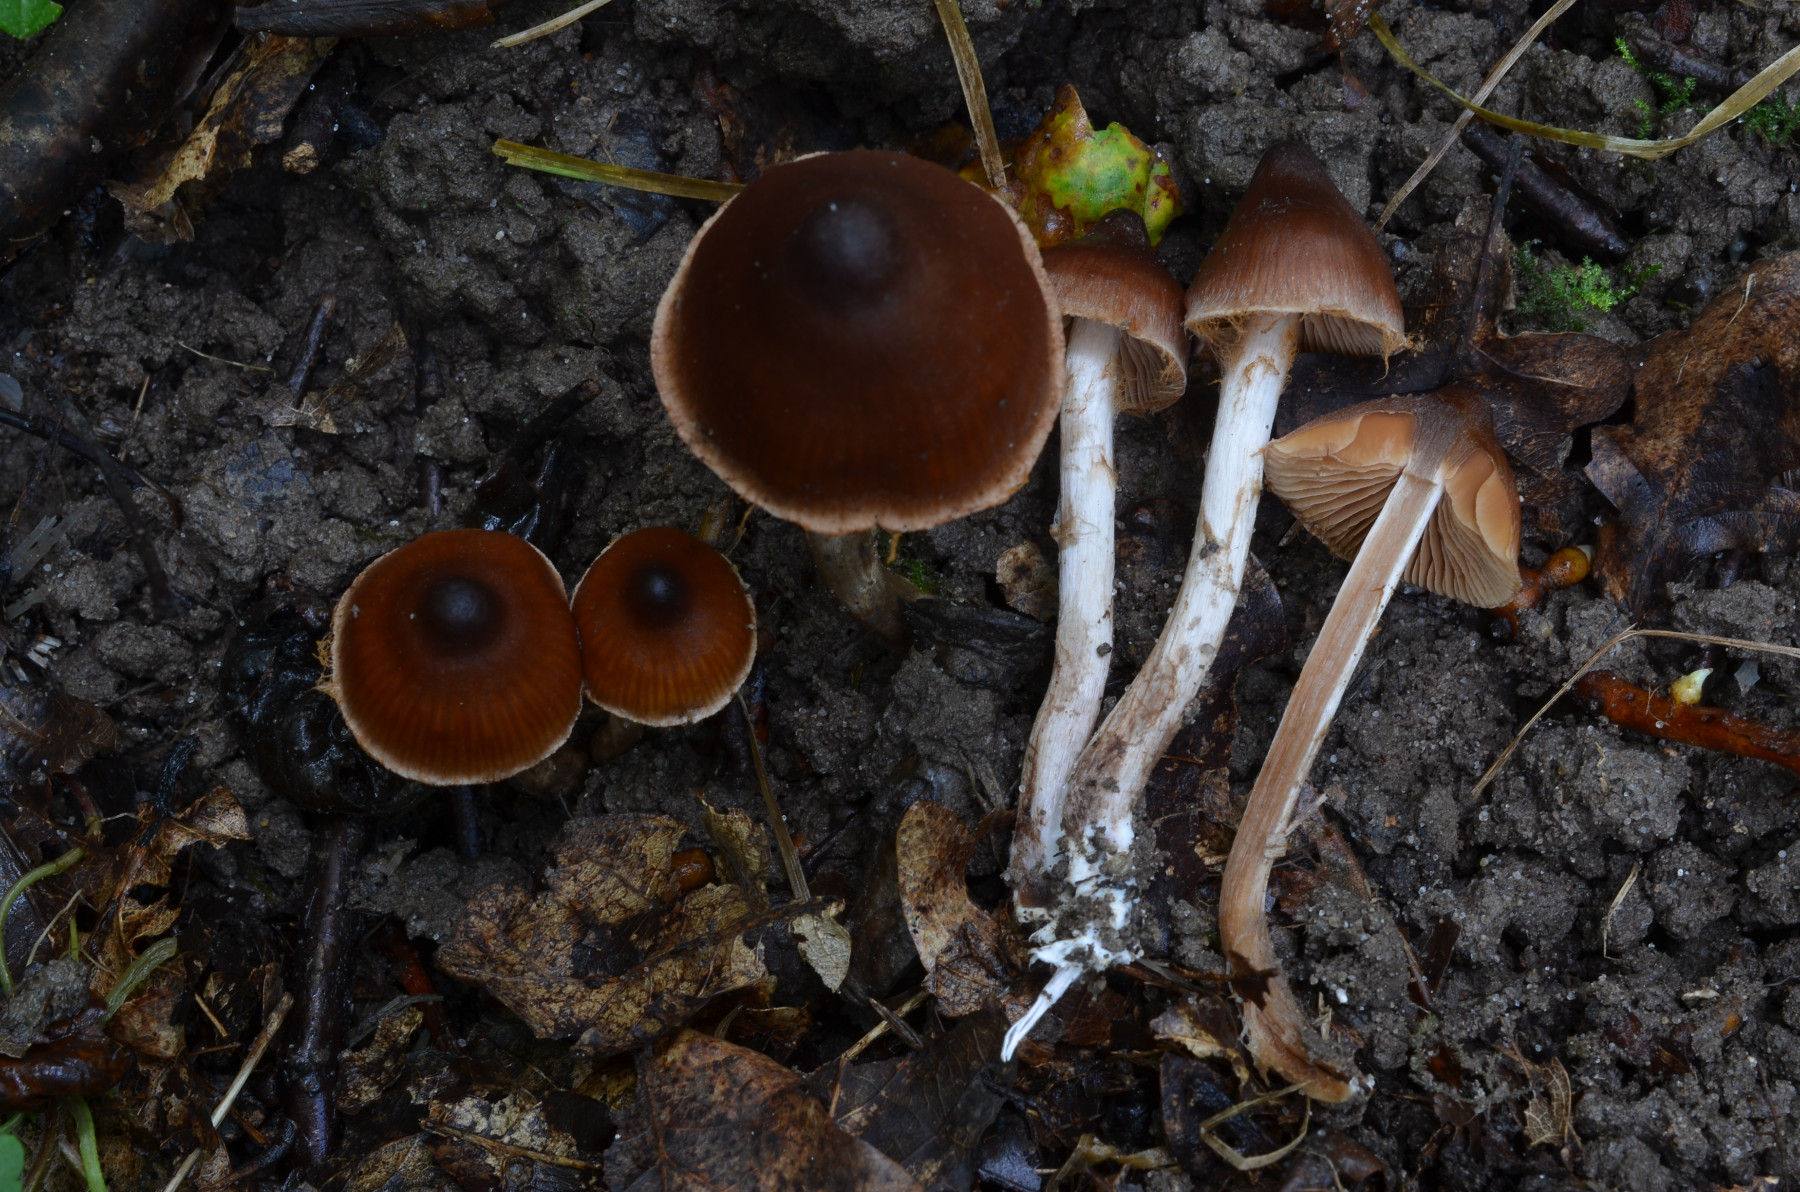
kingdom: Fungi
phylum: Basidiomycota
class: Agaricomycetes
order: Agaricales
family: Cortinariaceae
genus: Cortinarius
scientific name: Cortinarius
